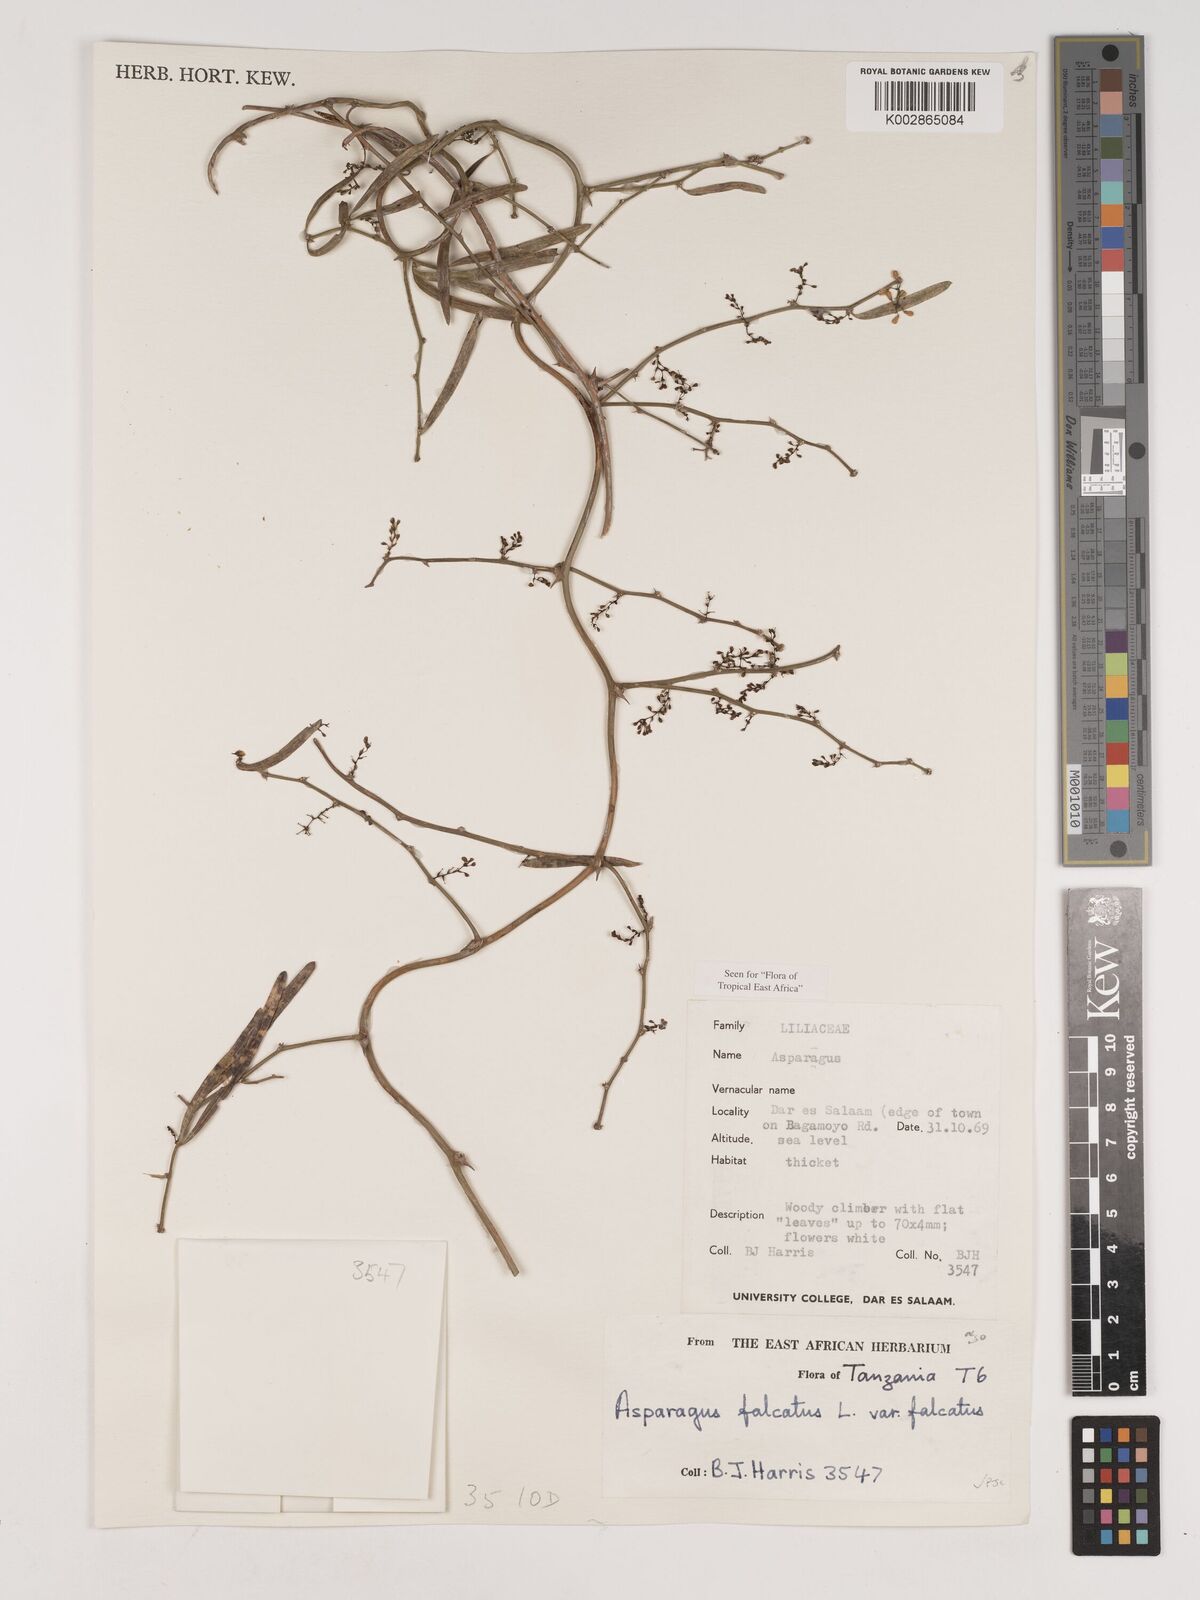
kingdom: Plantae
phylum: Tracheophyta
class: Liliopsida
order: Asparagales
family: Asparagaceae
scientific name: Asparagaceae
